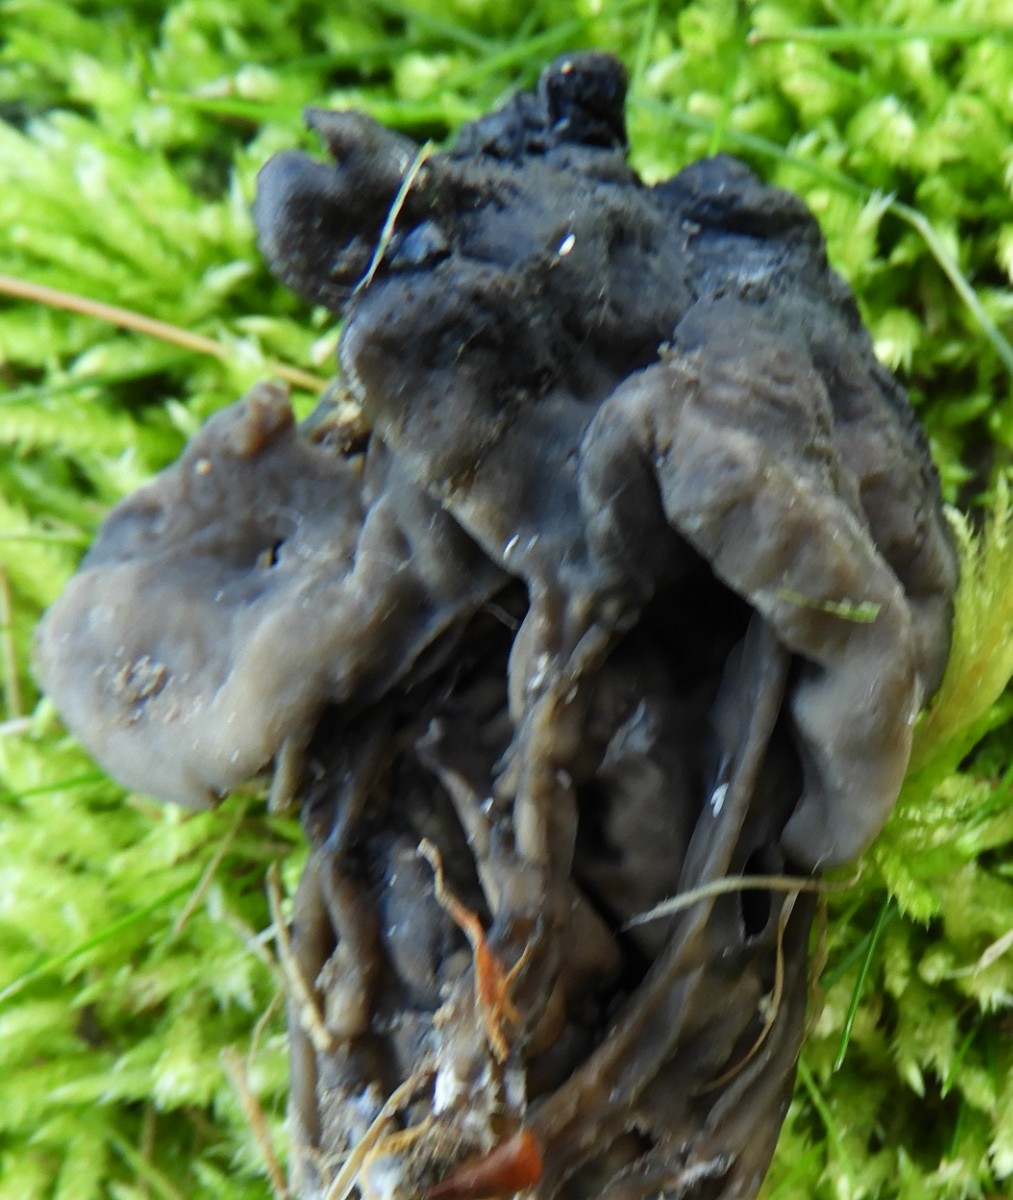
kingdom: Fungi
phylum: Ascomycota
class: Pezizomycetes
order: Pezizales
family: Helvellaceae
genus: Helvella
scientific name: Helvella lacunosa
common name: grubet foldhat
